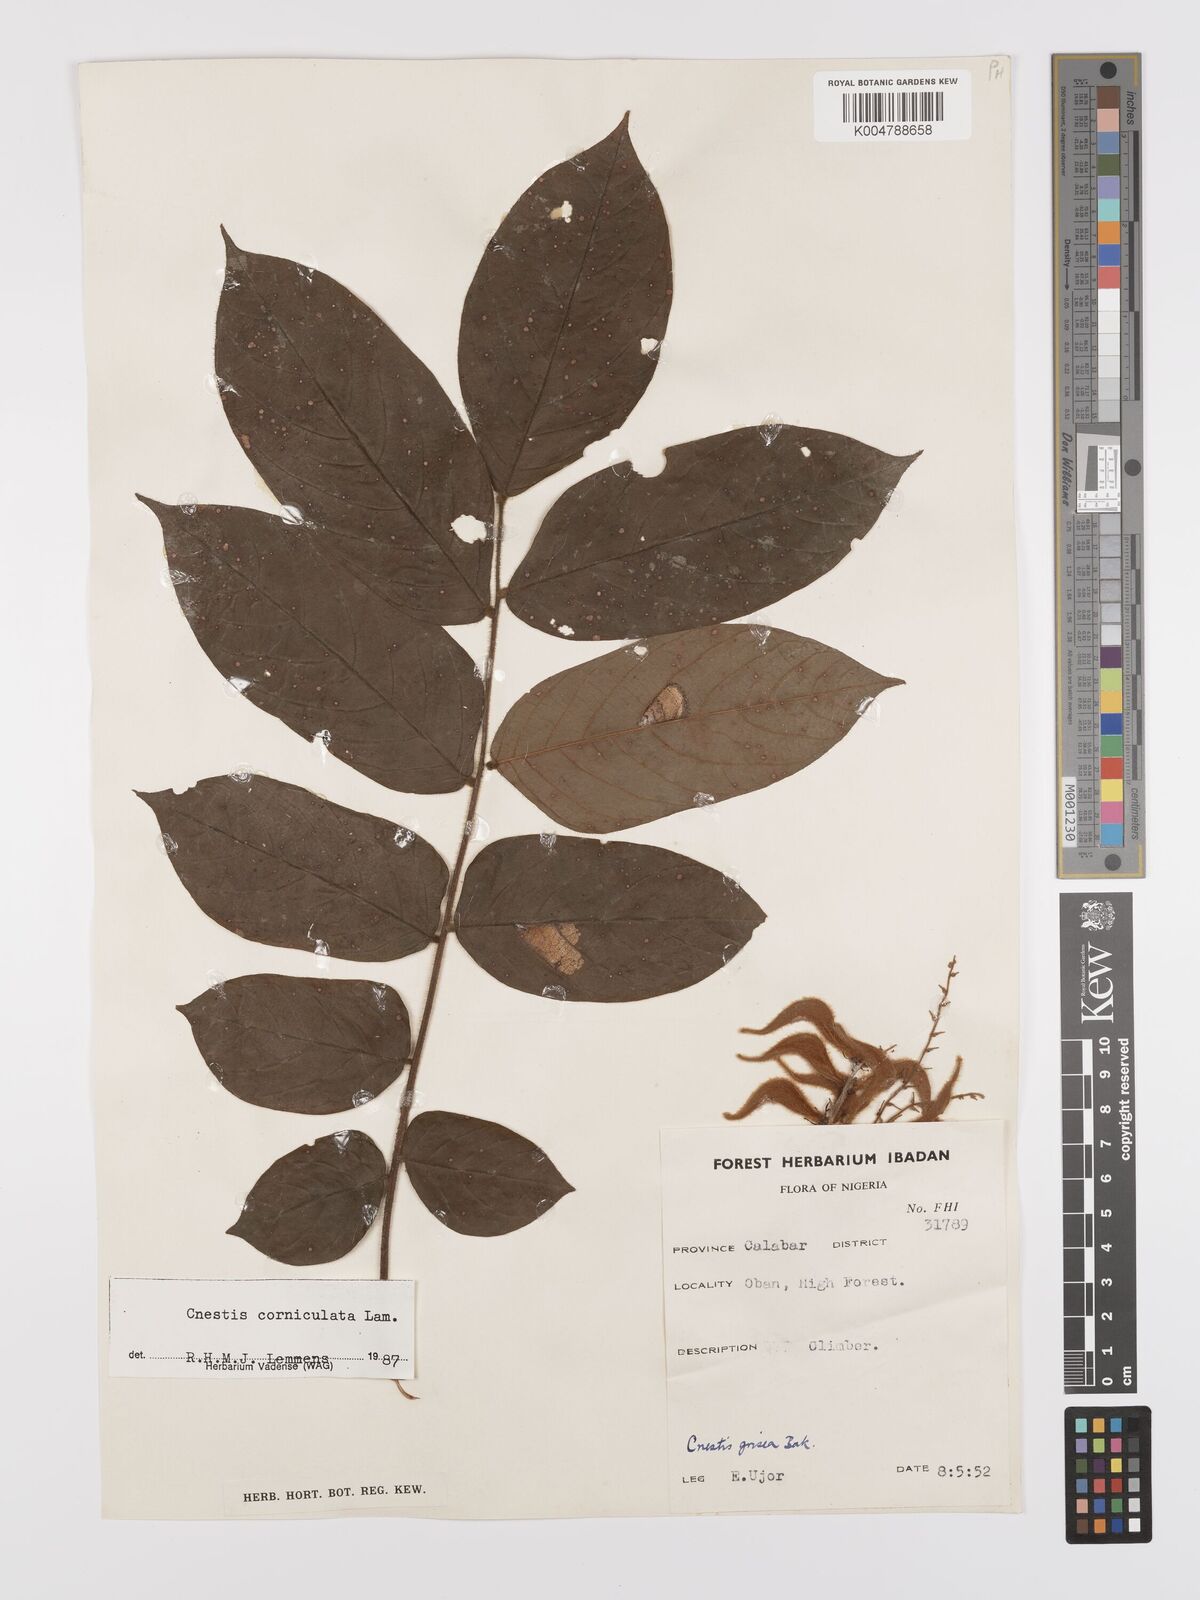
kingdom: Plantae
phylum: Tracheophyta
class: Magnoliopsida
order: Oxalidales
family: Connaraceae
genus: Cnestis
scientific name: Cnestis corniculata
